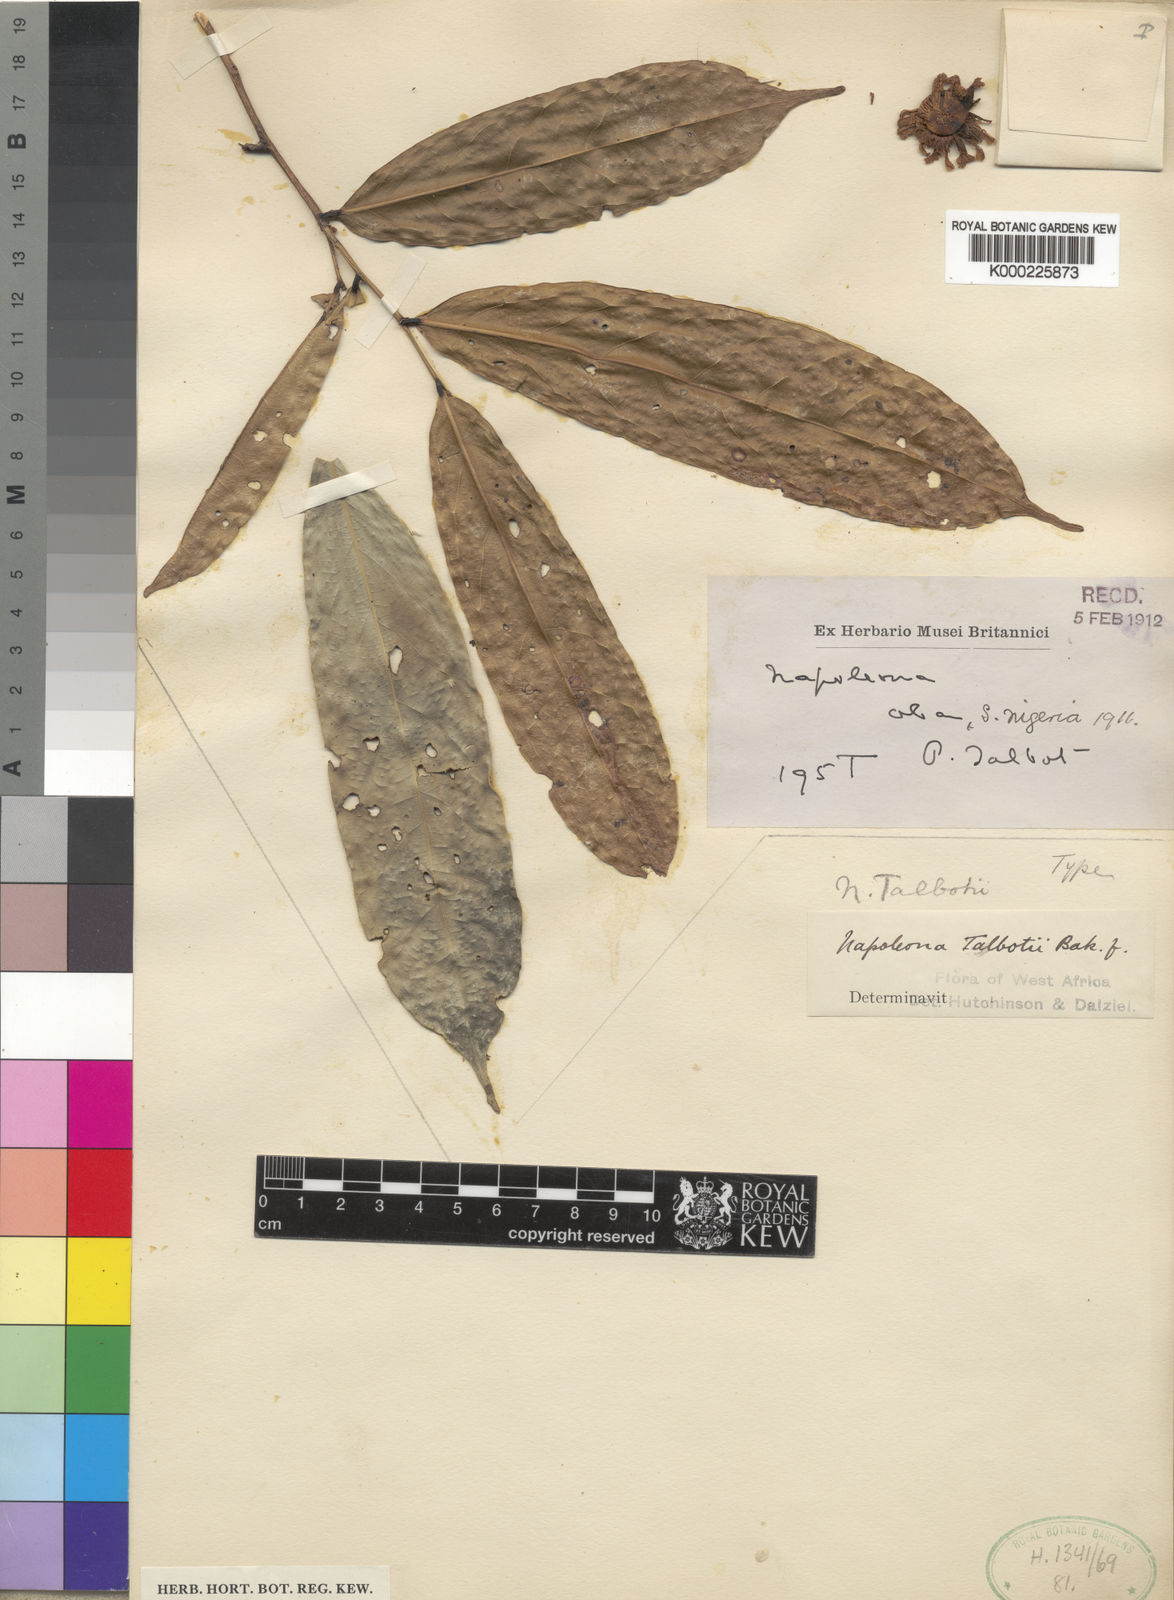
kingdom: Plantae
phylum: Tracheophyta
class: Magnoliopsida
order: Ericales
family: Lecythidaceae
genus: Napoleonaea
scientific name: Napoleonaea talbotii
